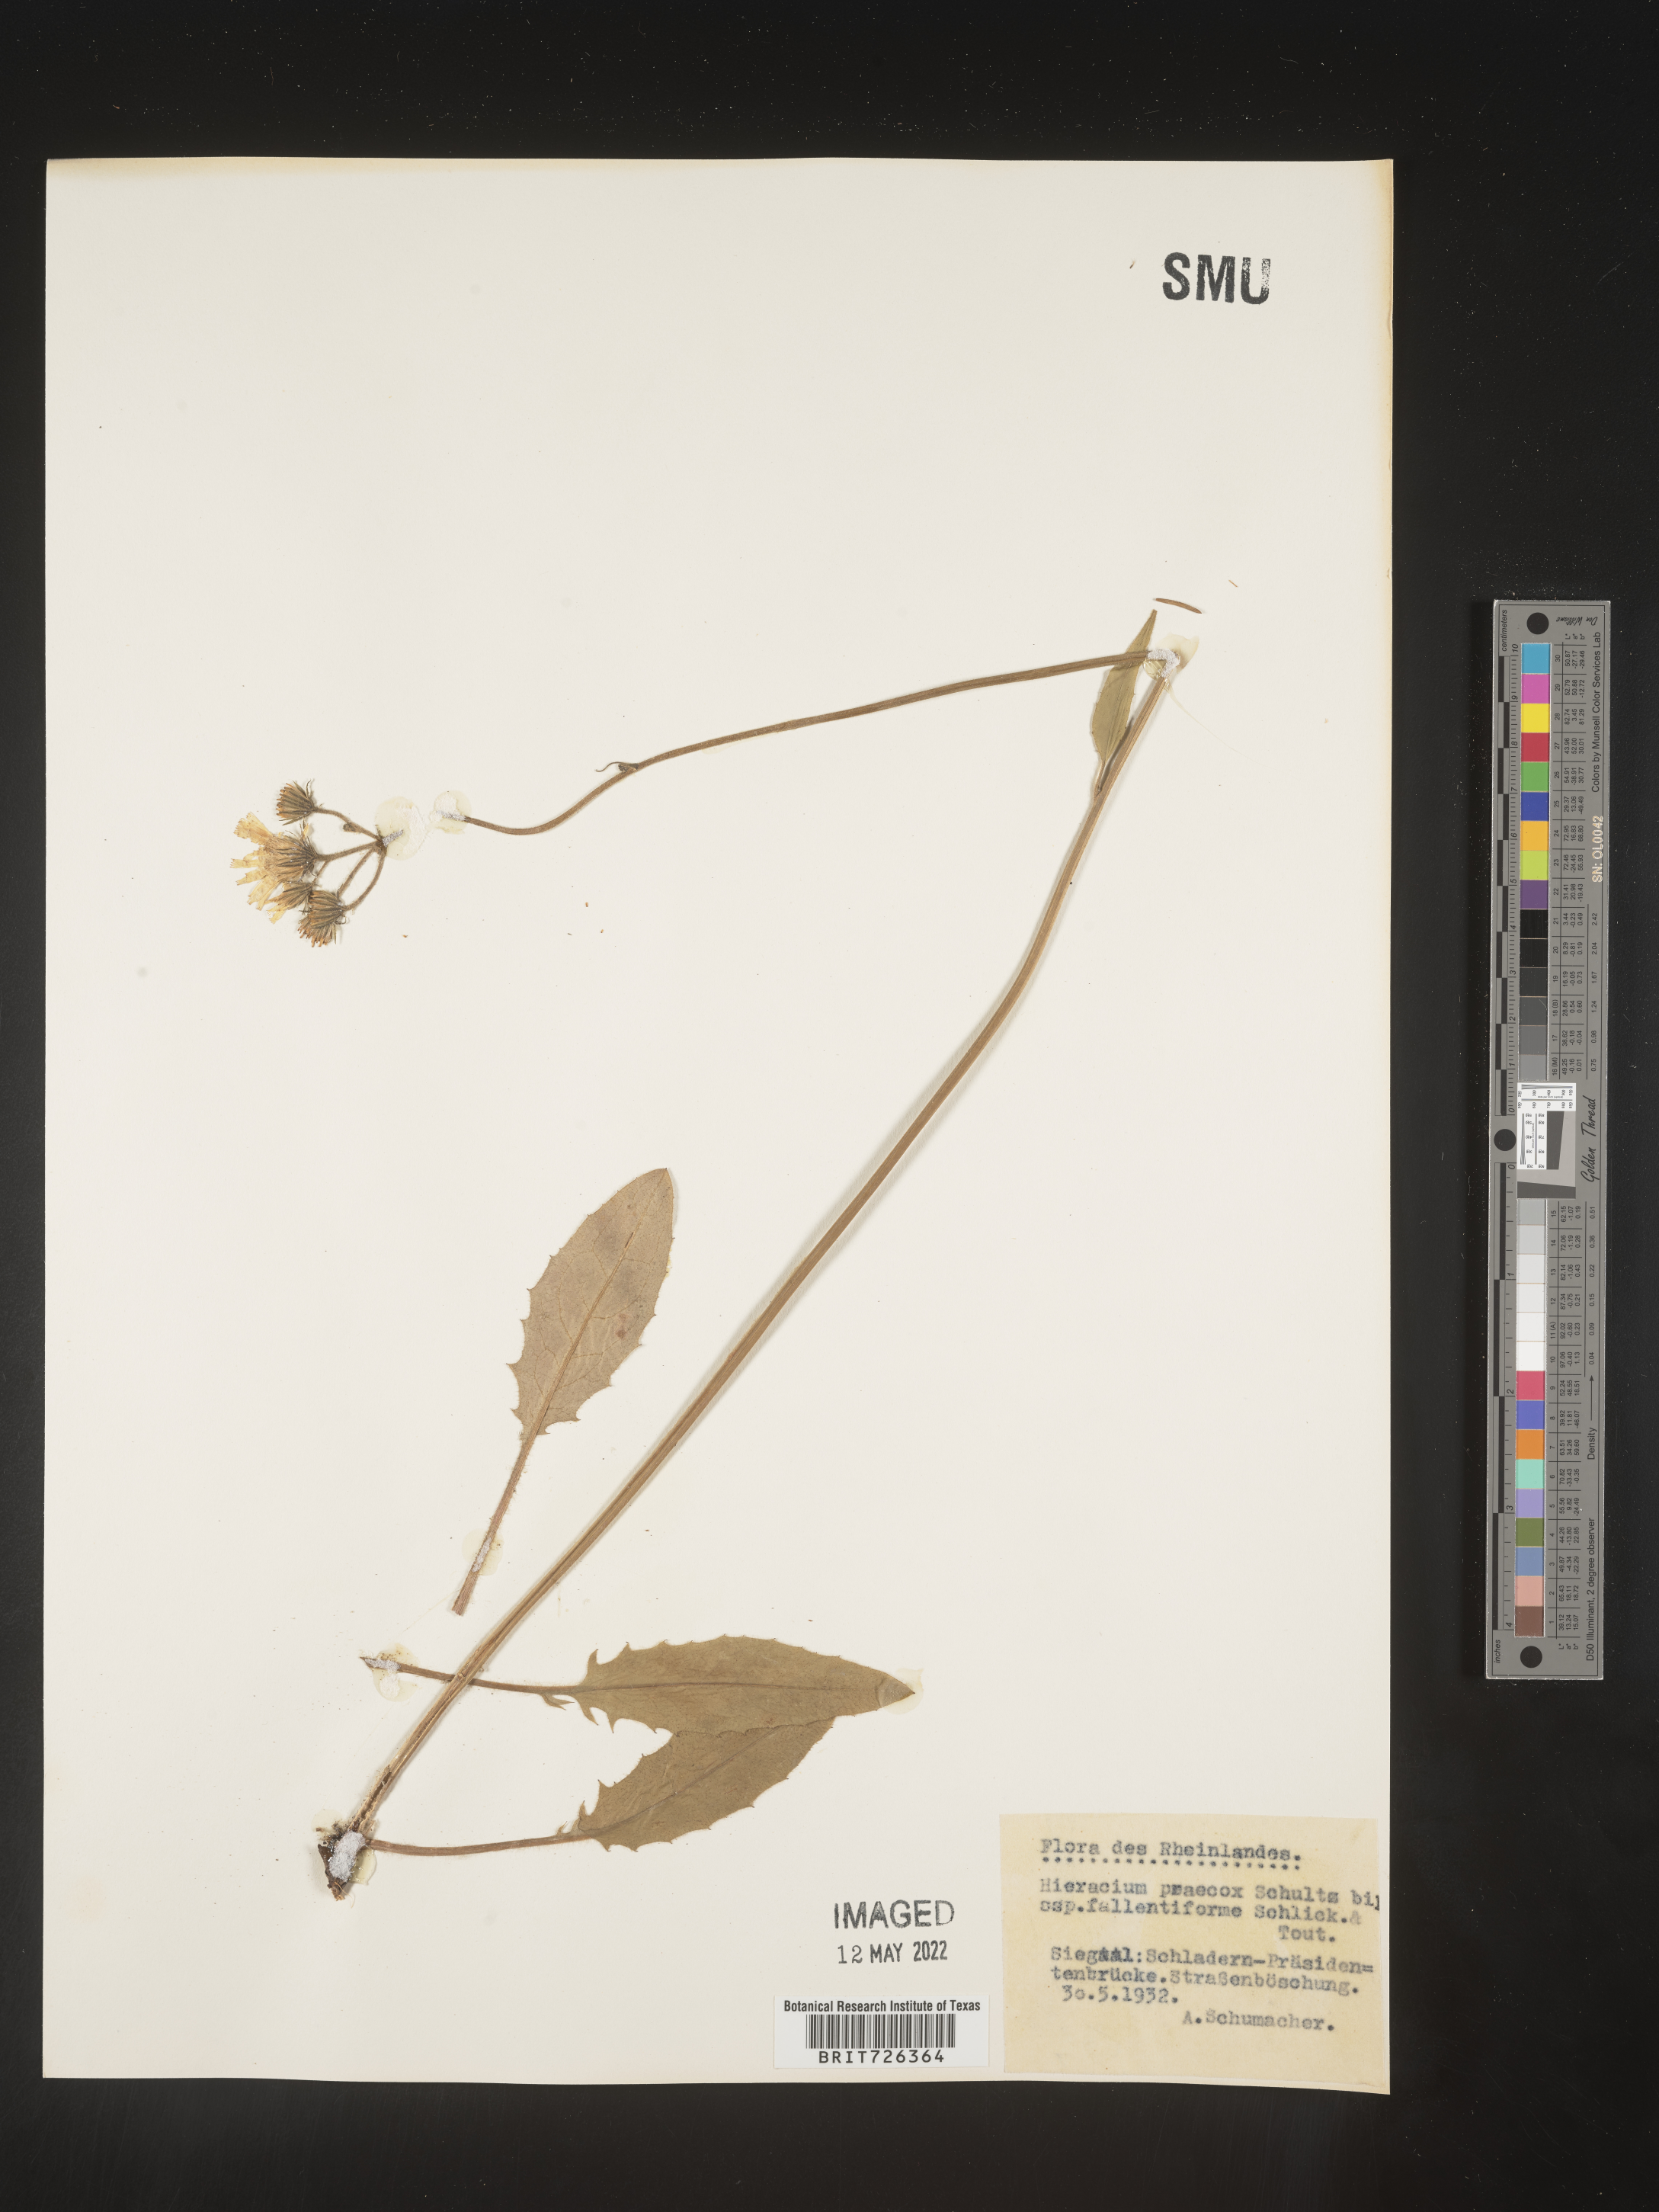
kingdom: Plantae
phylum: Tracheophyta
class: Magnoliopsida
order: Asterales
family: Asteraceae
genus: Hieracium
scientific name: Hieracium
